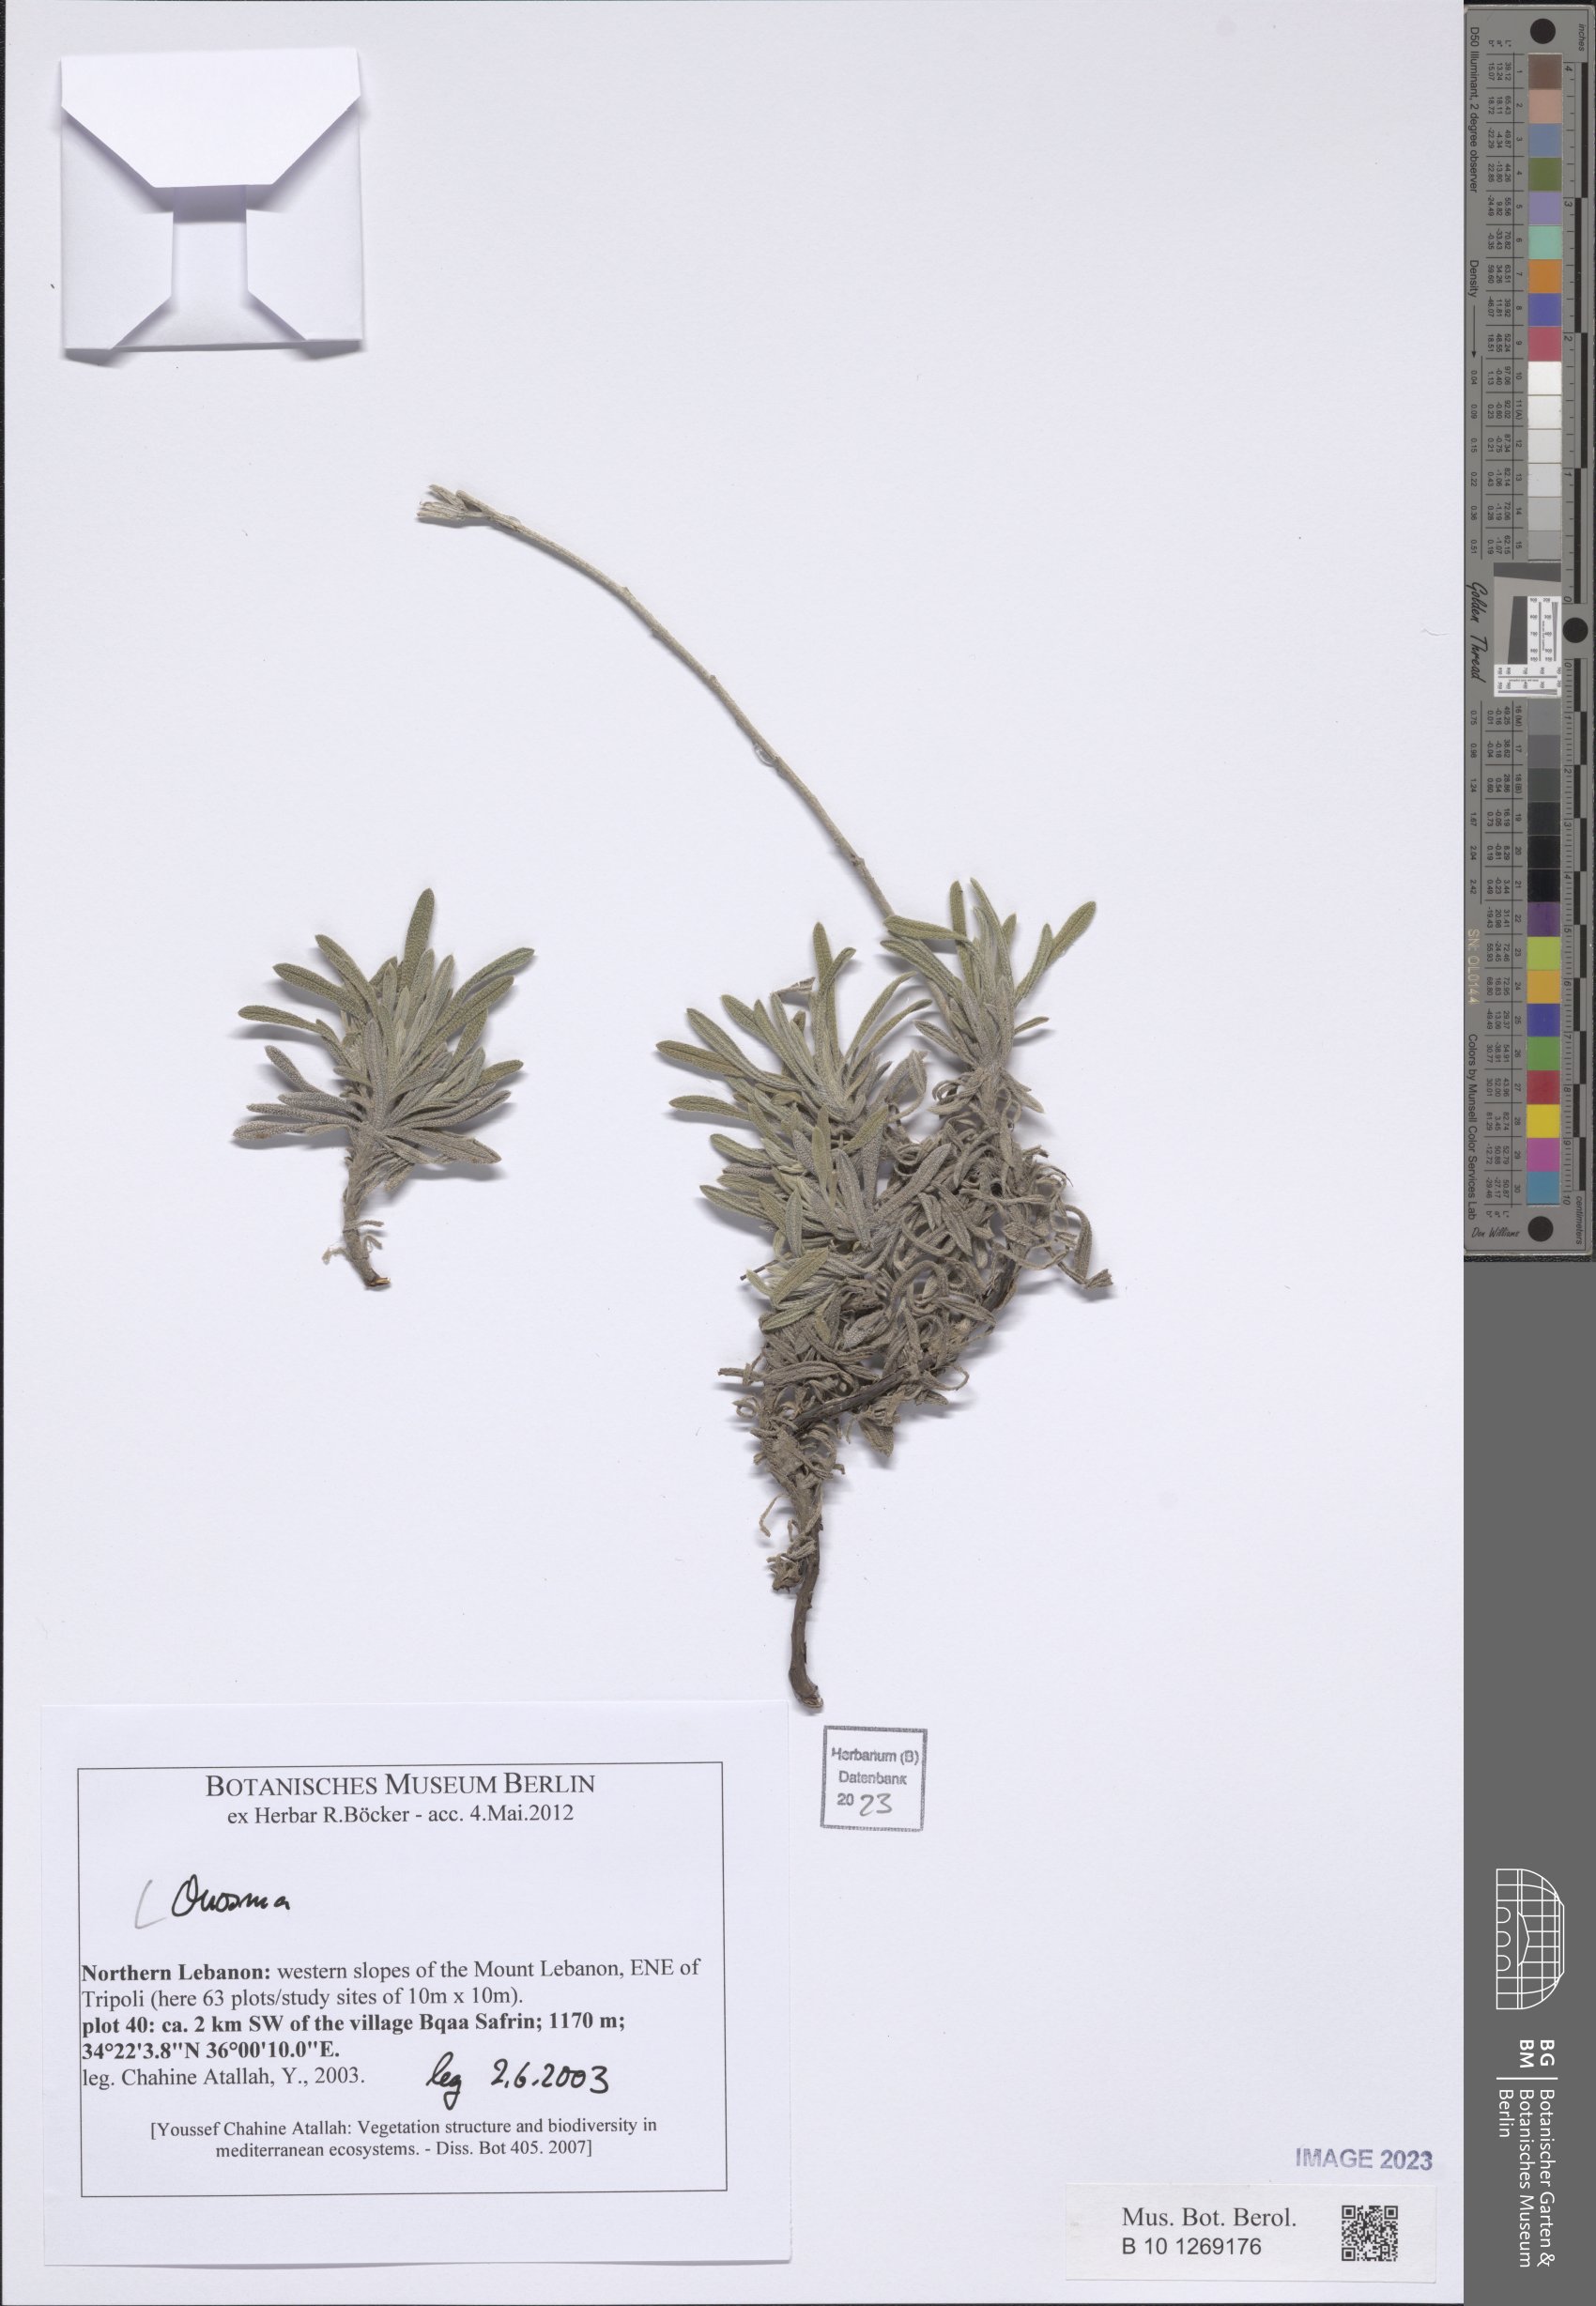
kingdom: Plantae
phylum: Tracheophyta
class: Magnoliopsida
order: Boraginales
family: Boraginaceae
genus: Onosma
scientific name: Onosma
